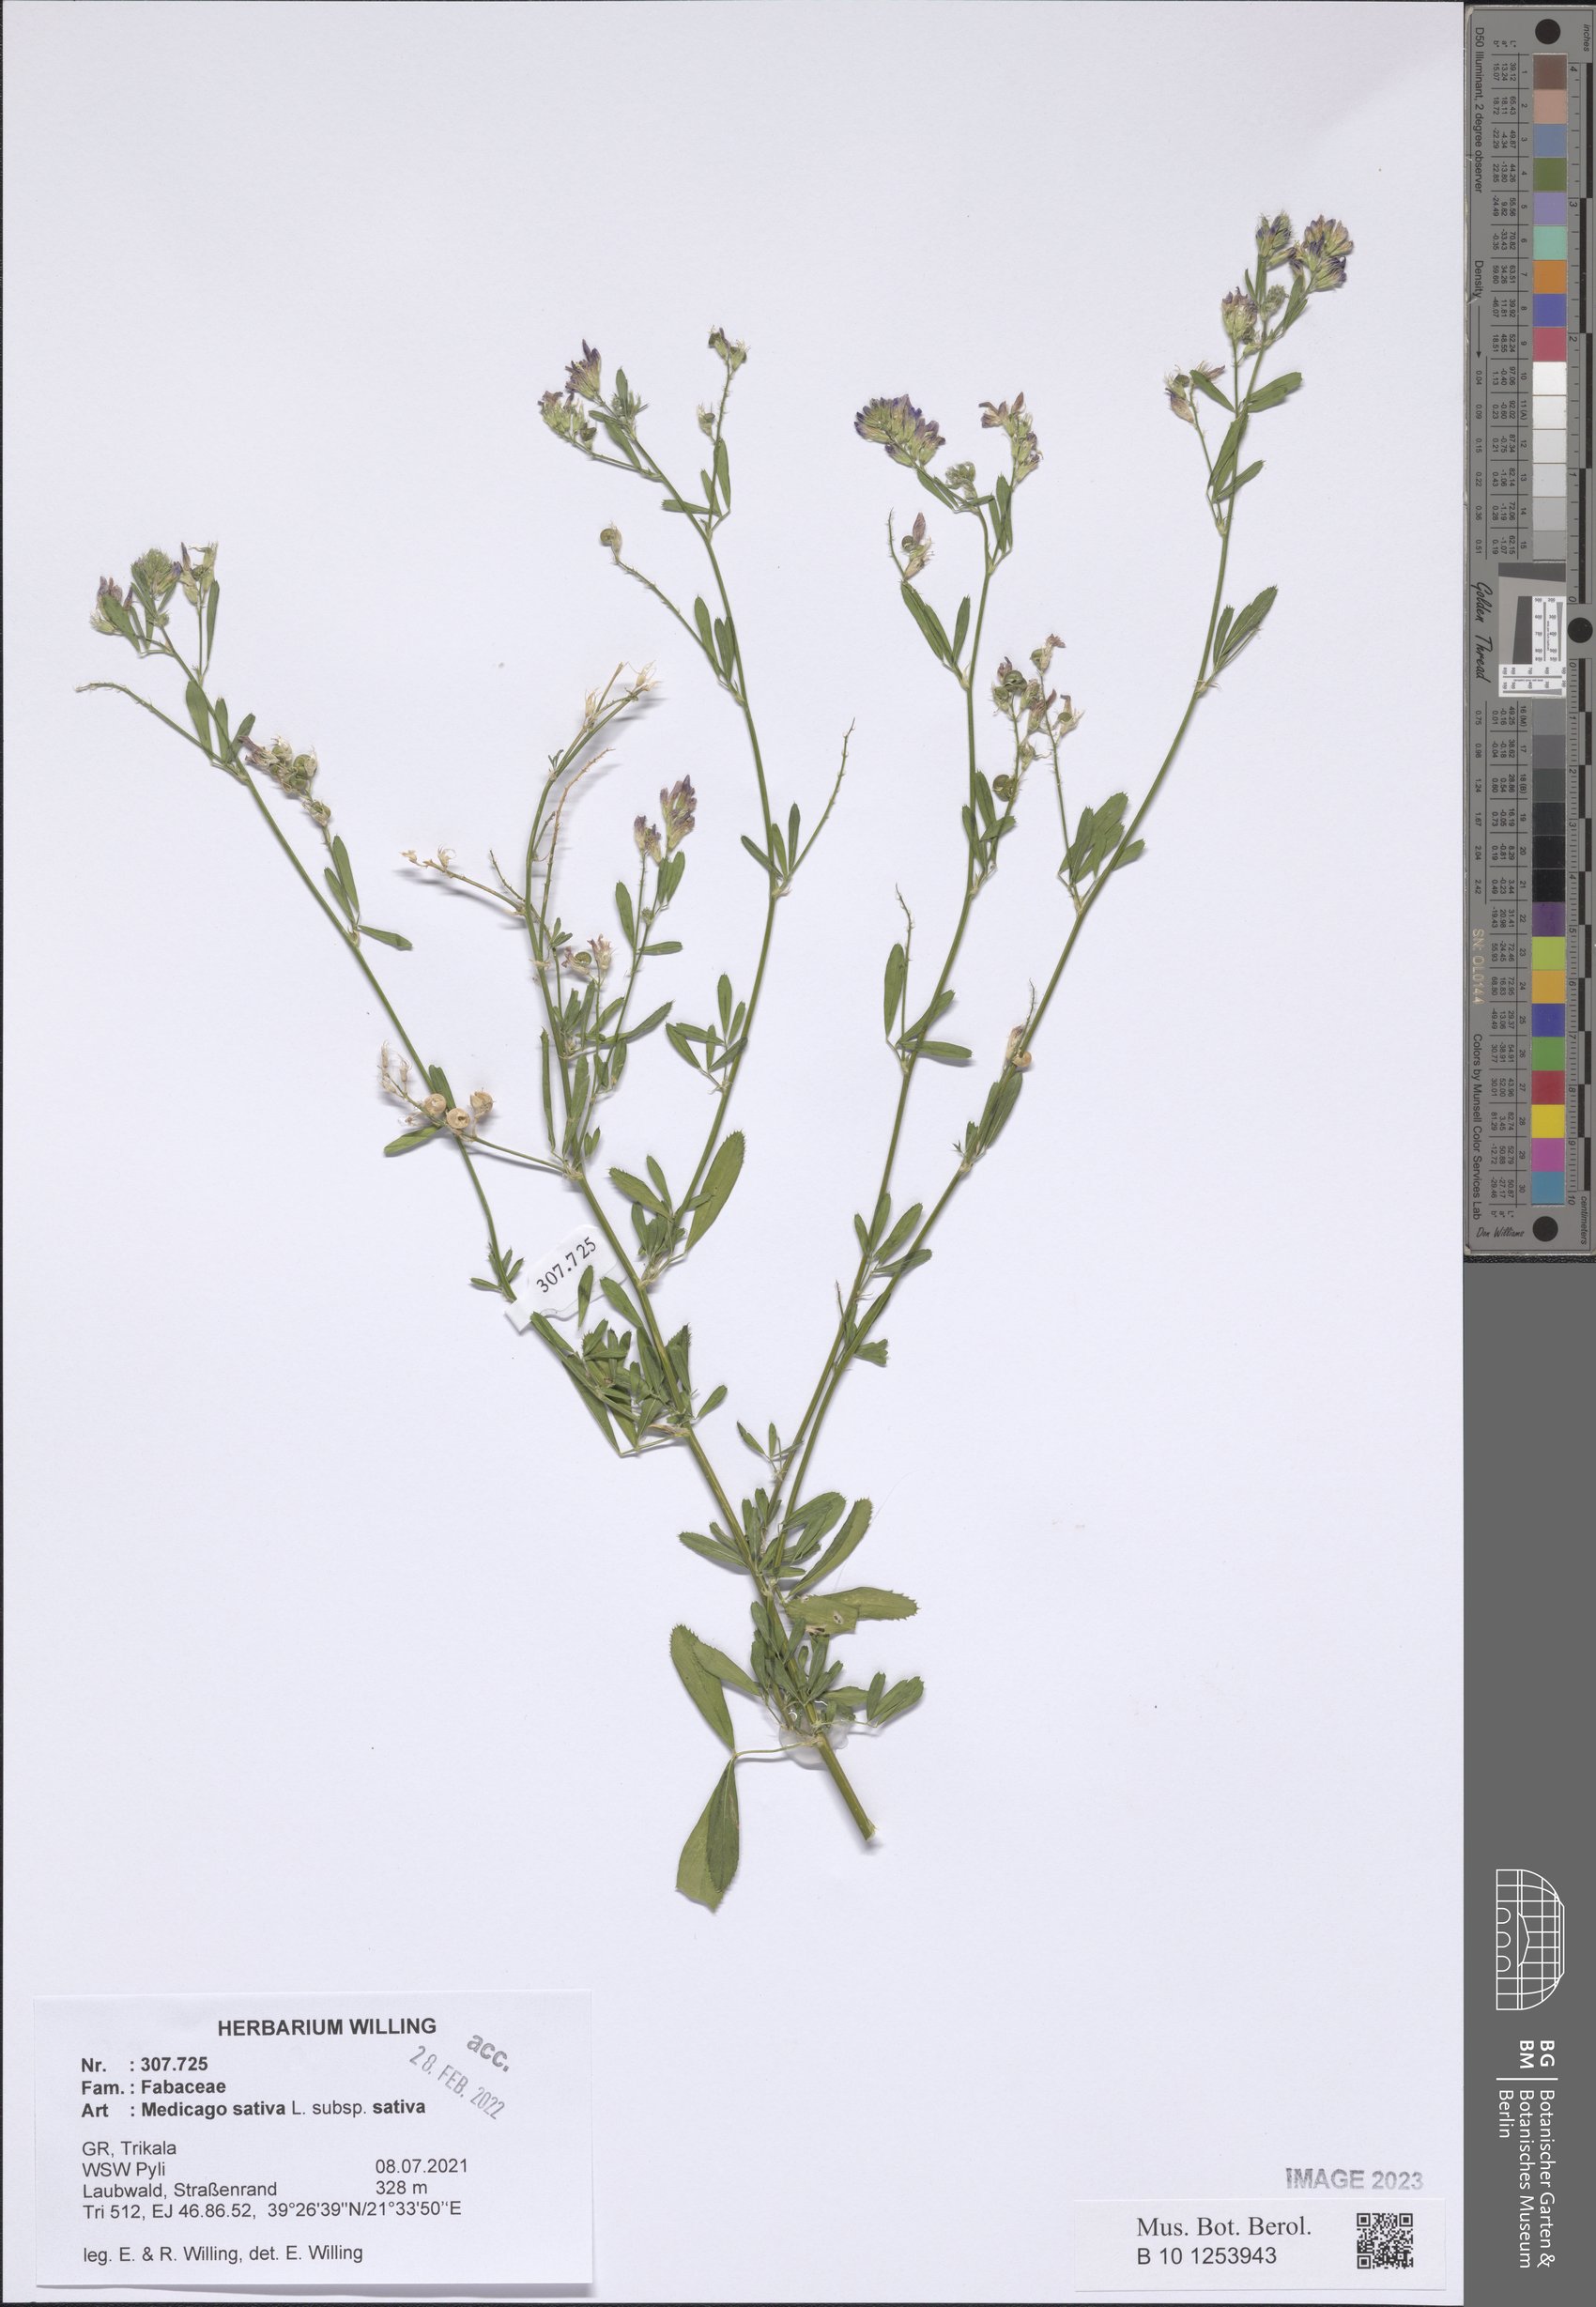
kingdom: Plantae
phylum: Tracheophyta
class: Magnoliopsida
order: Fabales
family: Fabaceae
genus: Medicago
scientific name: Medicago sativa
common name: Alfalfa
